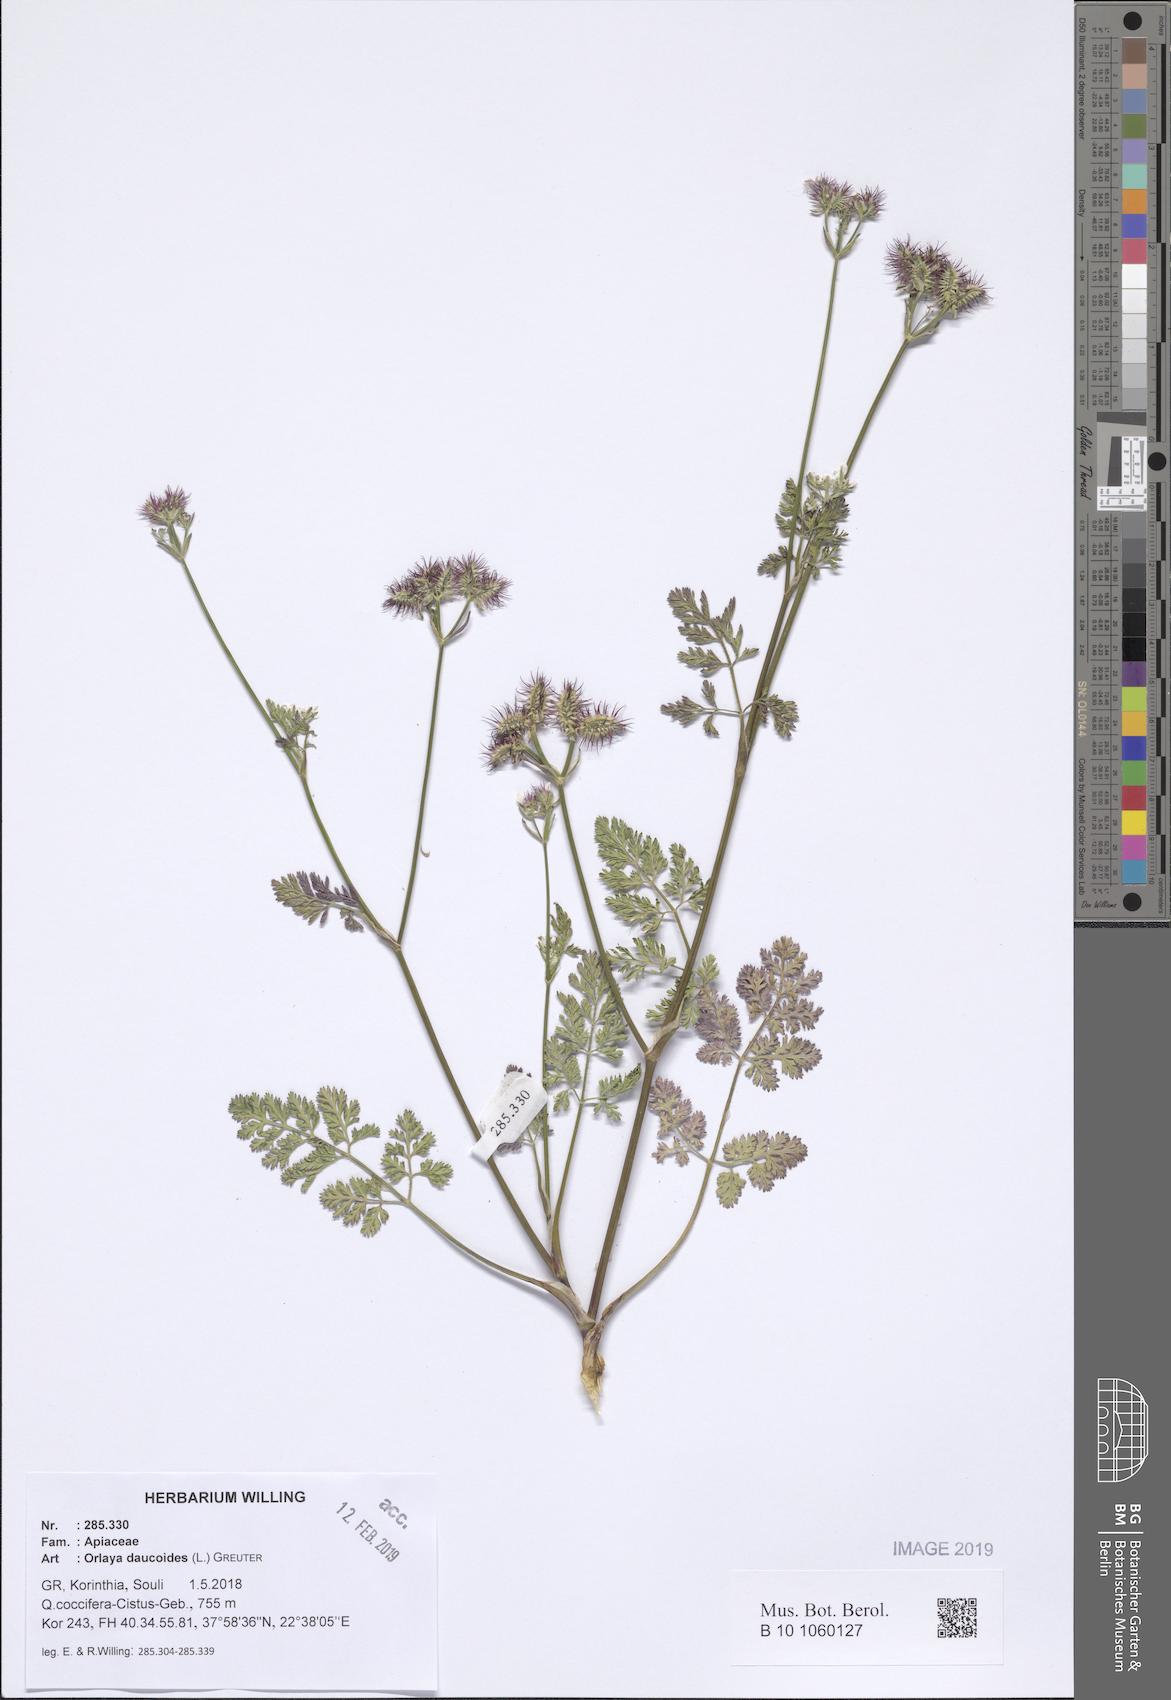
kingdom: Plantae
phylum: Tracheophyta
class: Magnoliopsida
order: Apiales
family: Apiaceae
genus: Orlaya
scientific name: Orlaya daucoides
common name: Flat-fruit orlaya
